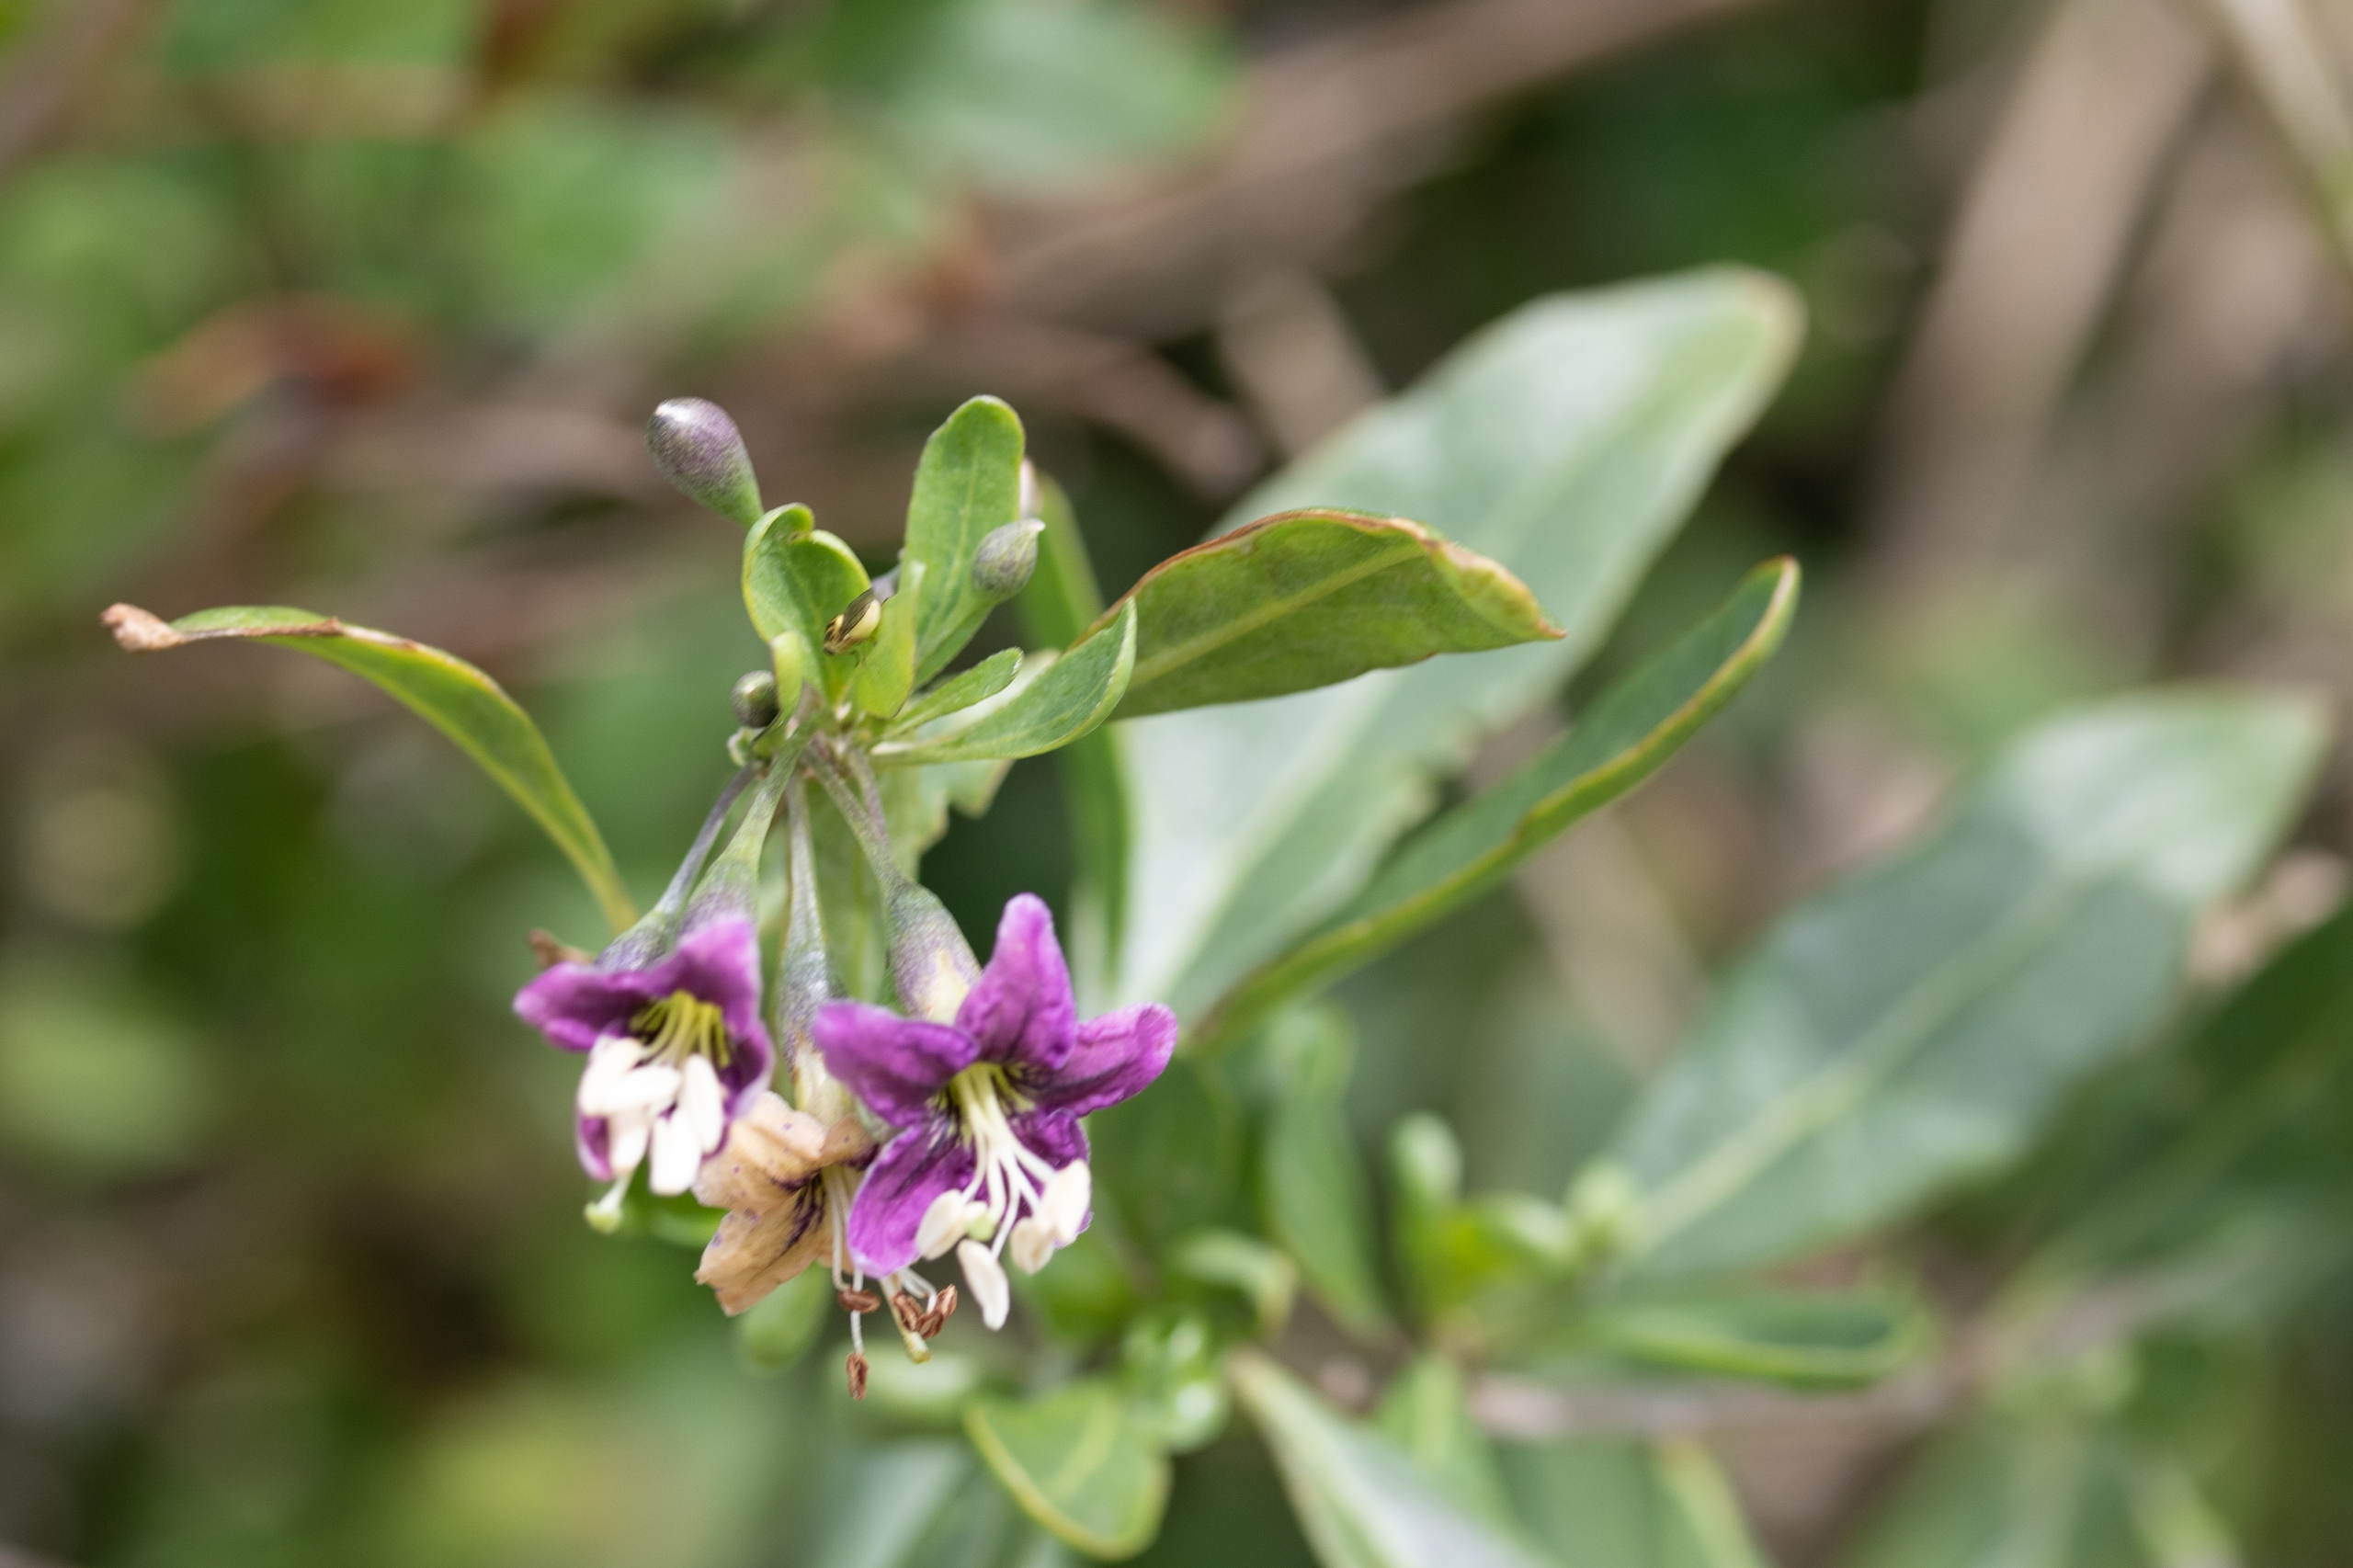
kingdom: Plantae
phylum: Tracheophyta
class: Magnoliopsida
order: Solanales
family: Solanaceae
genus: Lycium
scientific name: Lycium barbarum
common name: Bukketorn
